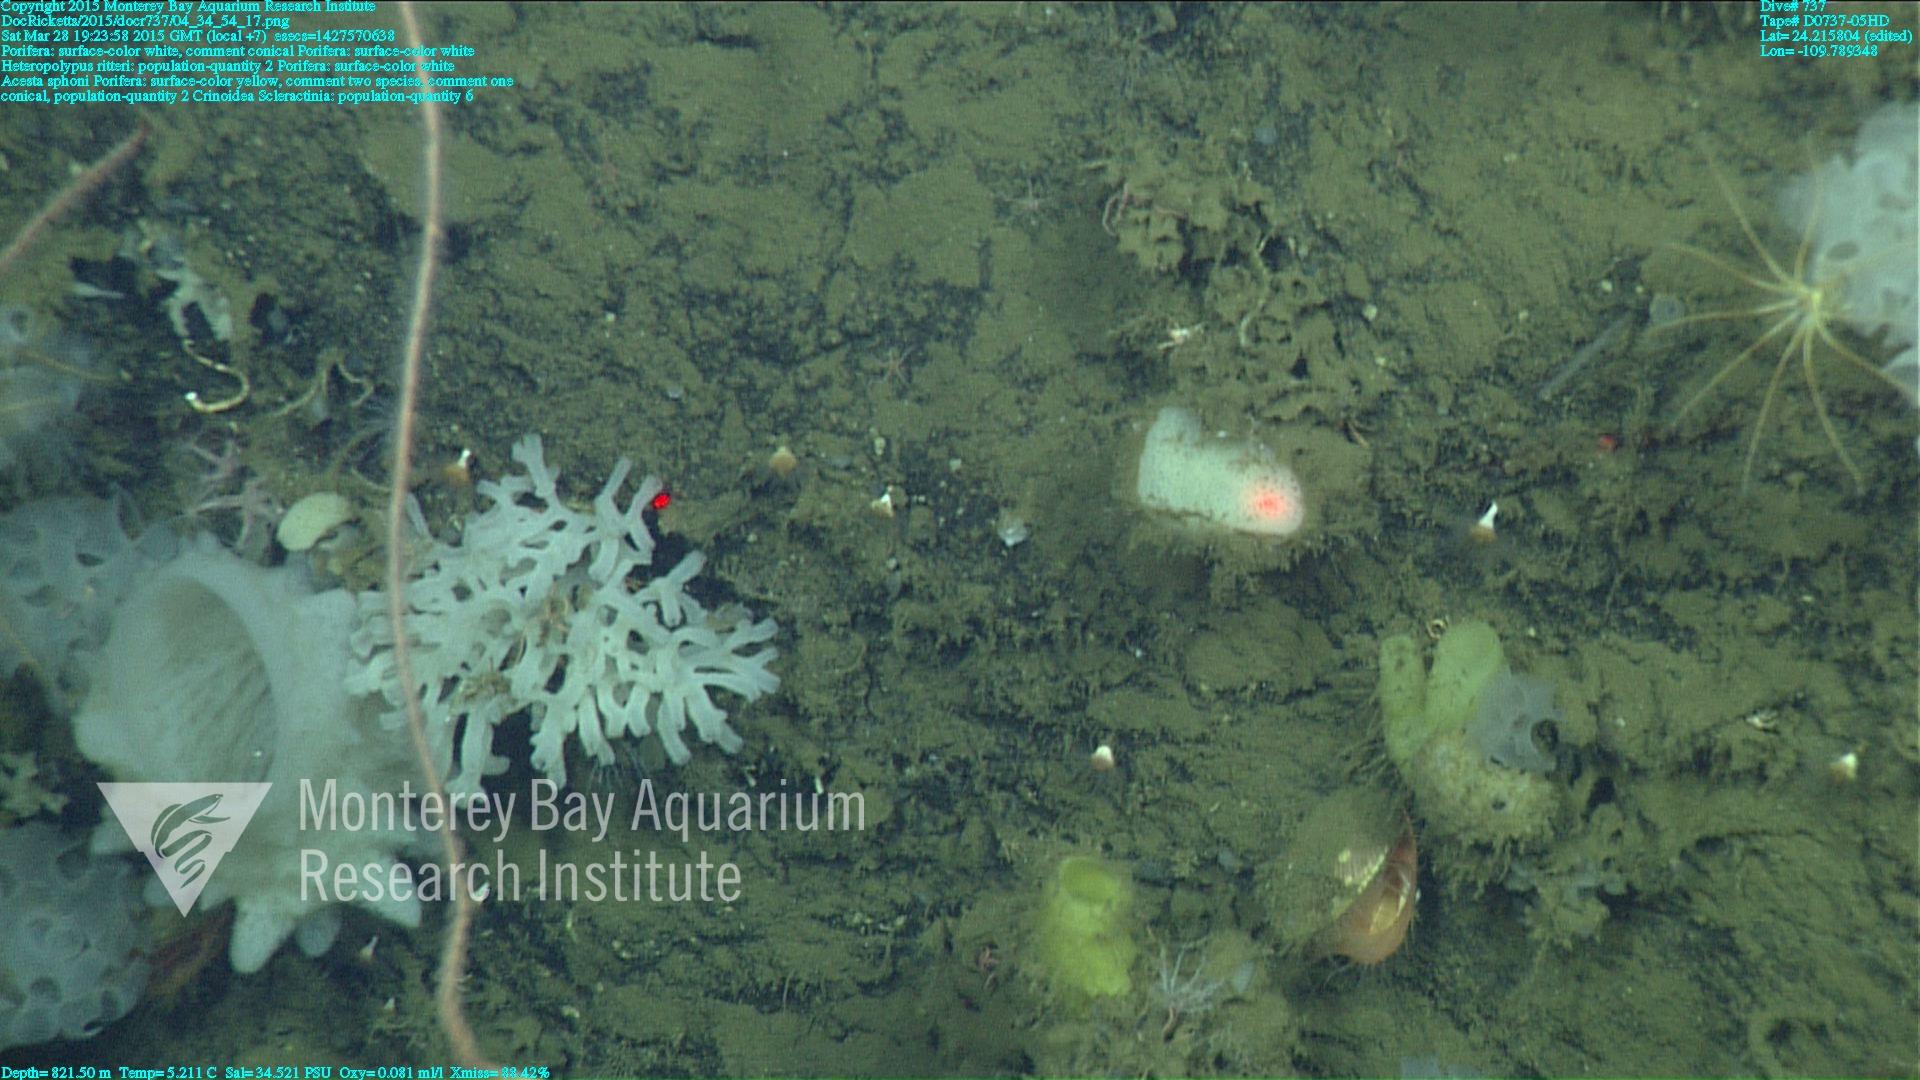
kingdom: Animalia
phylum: Cnidaria
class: Anthozoa
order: Scleractinia
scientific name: Scleractinia
